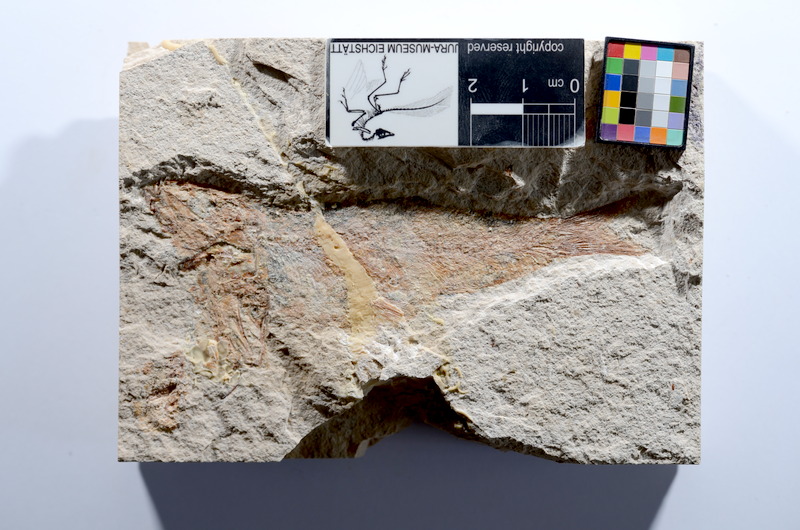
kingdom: Animalia
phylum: Chordata
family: Ascalaboidae
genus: Tharsis
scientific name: Tharsis dubius
